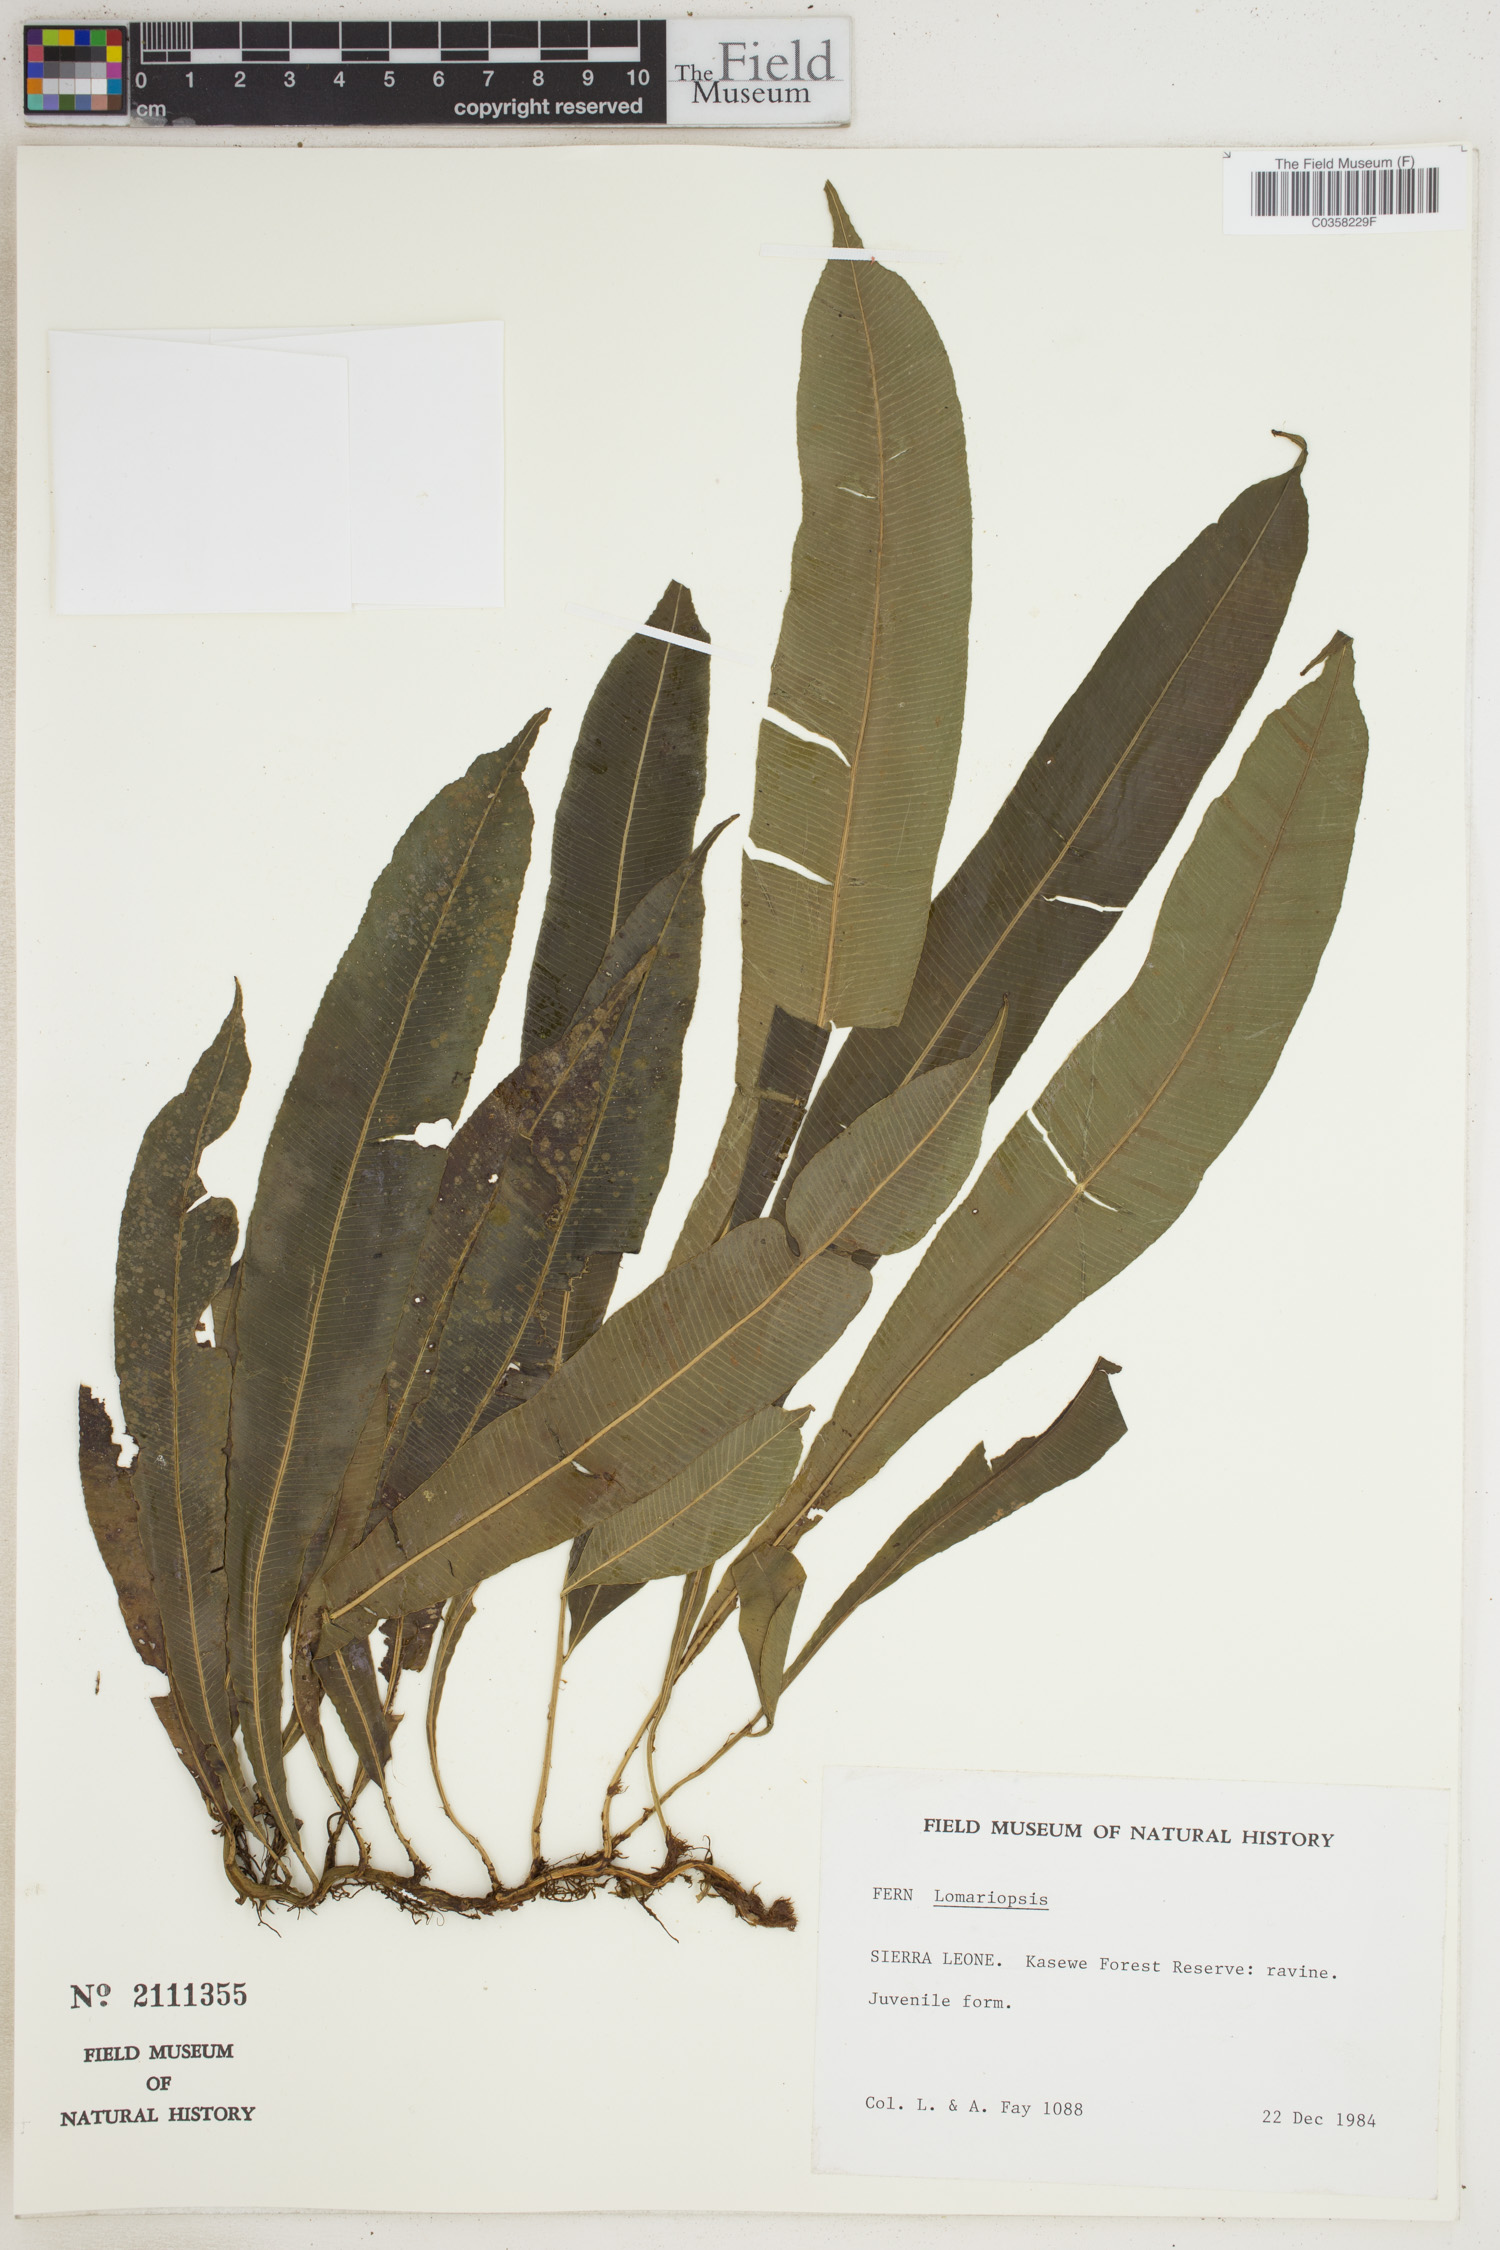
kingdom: Plantae
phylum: Tracheophyta
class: Polypodiopsida
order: Polypodiales
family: Lomariopsidaceae
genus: Lomariopsis
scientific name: Lomariopsis
